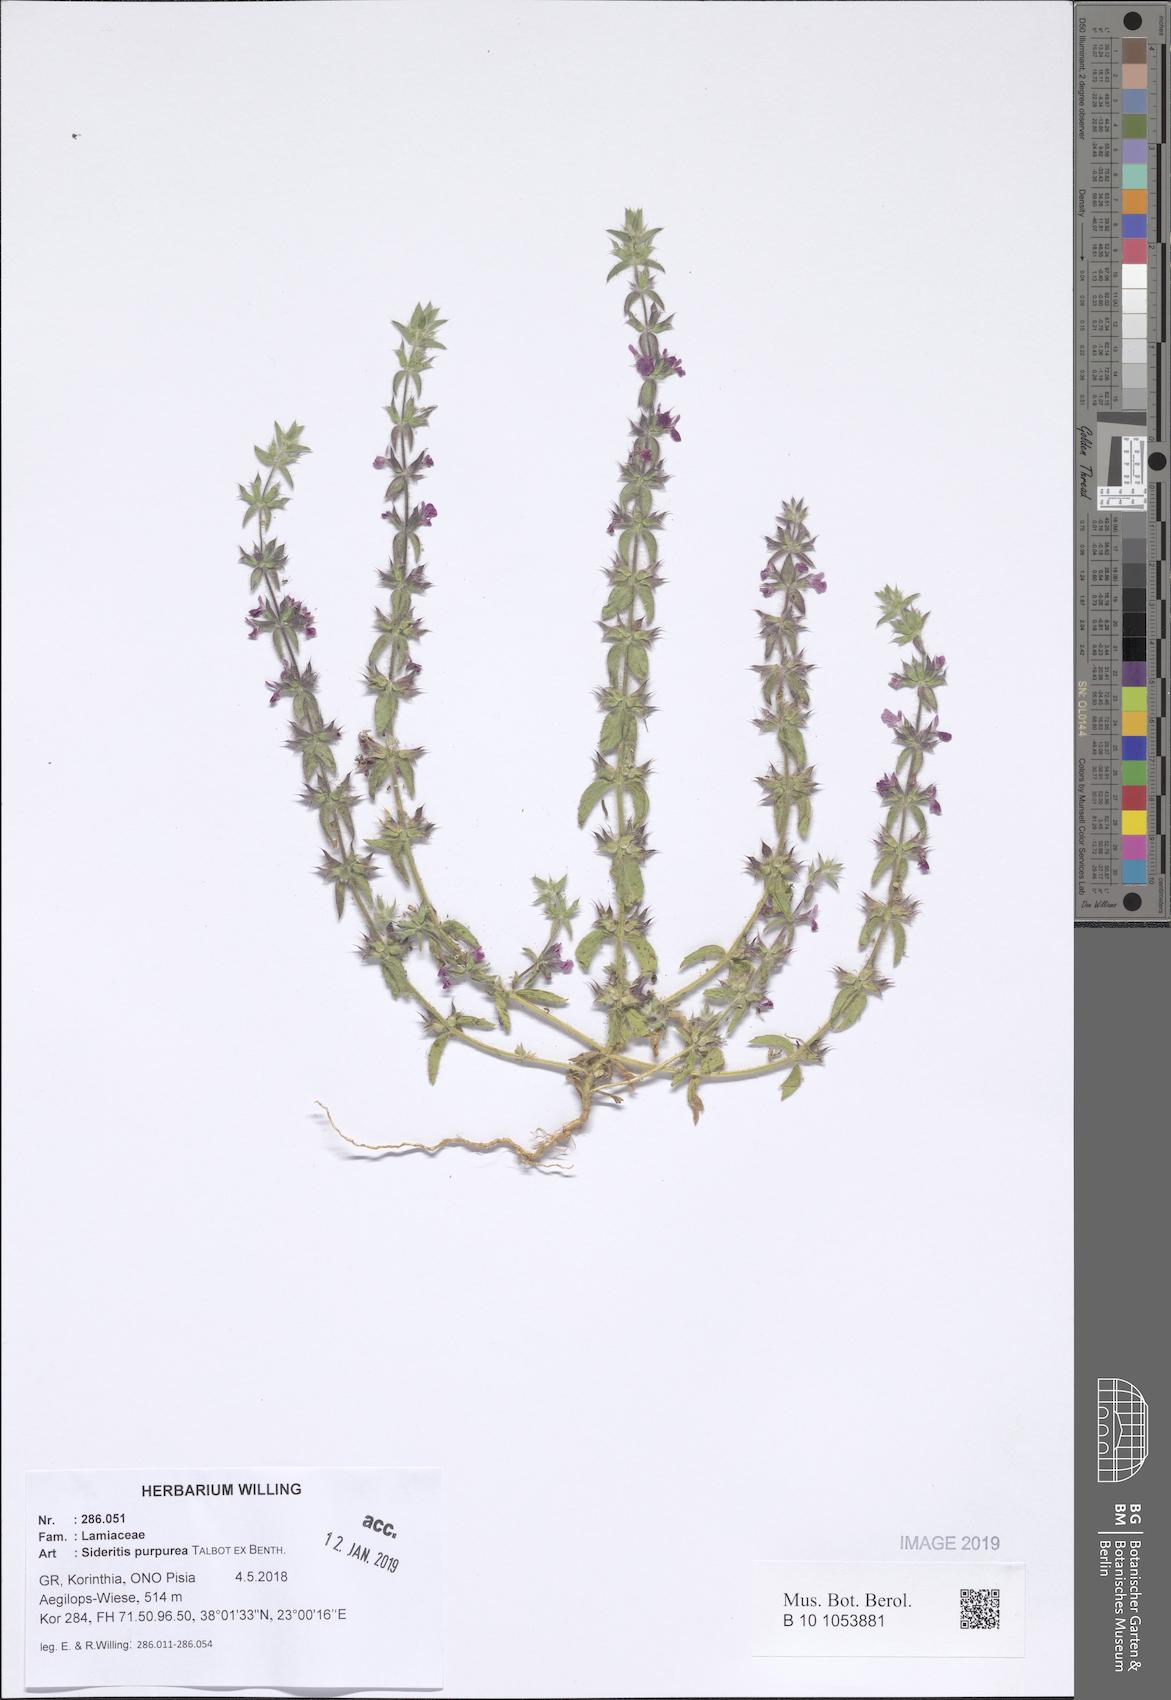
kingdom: Plantae
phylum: Tracheophyta
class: Magnoliopsida
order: Lamiales
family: Lamiaceae
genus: Sideritis
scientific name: Sideritis romana
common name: Simplebeak ironwort
